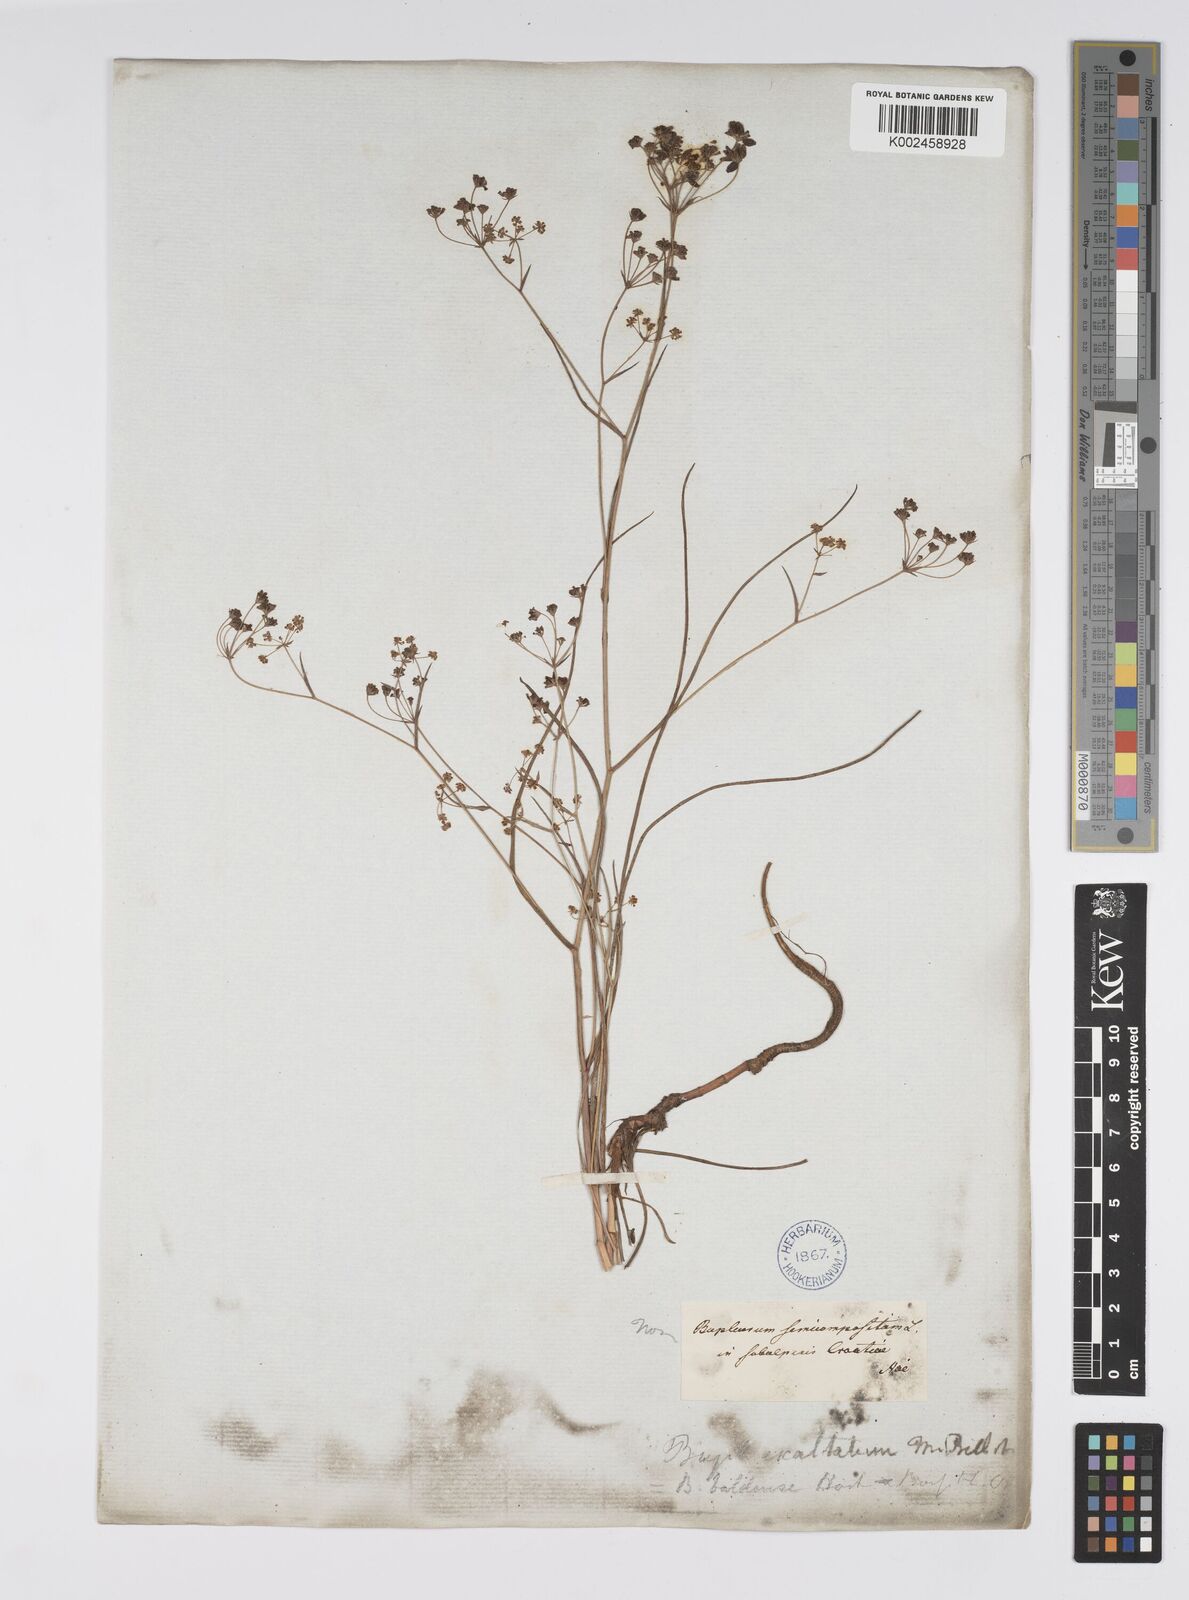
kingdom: Plantae
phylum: Tracheophyta
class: Magnoliopsida
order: Apiales
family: Apiaceae
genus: Bupleurum
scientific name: Bupleurum falcatum
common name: Sickle-leaved hare's-ear
